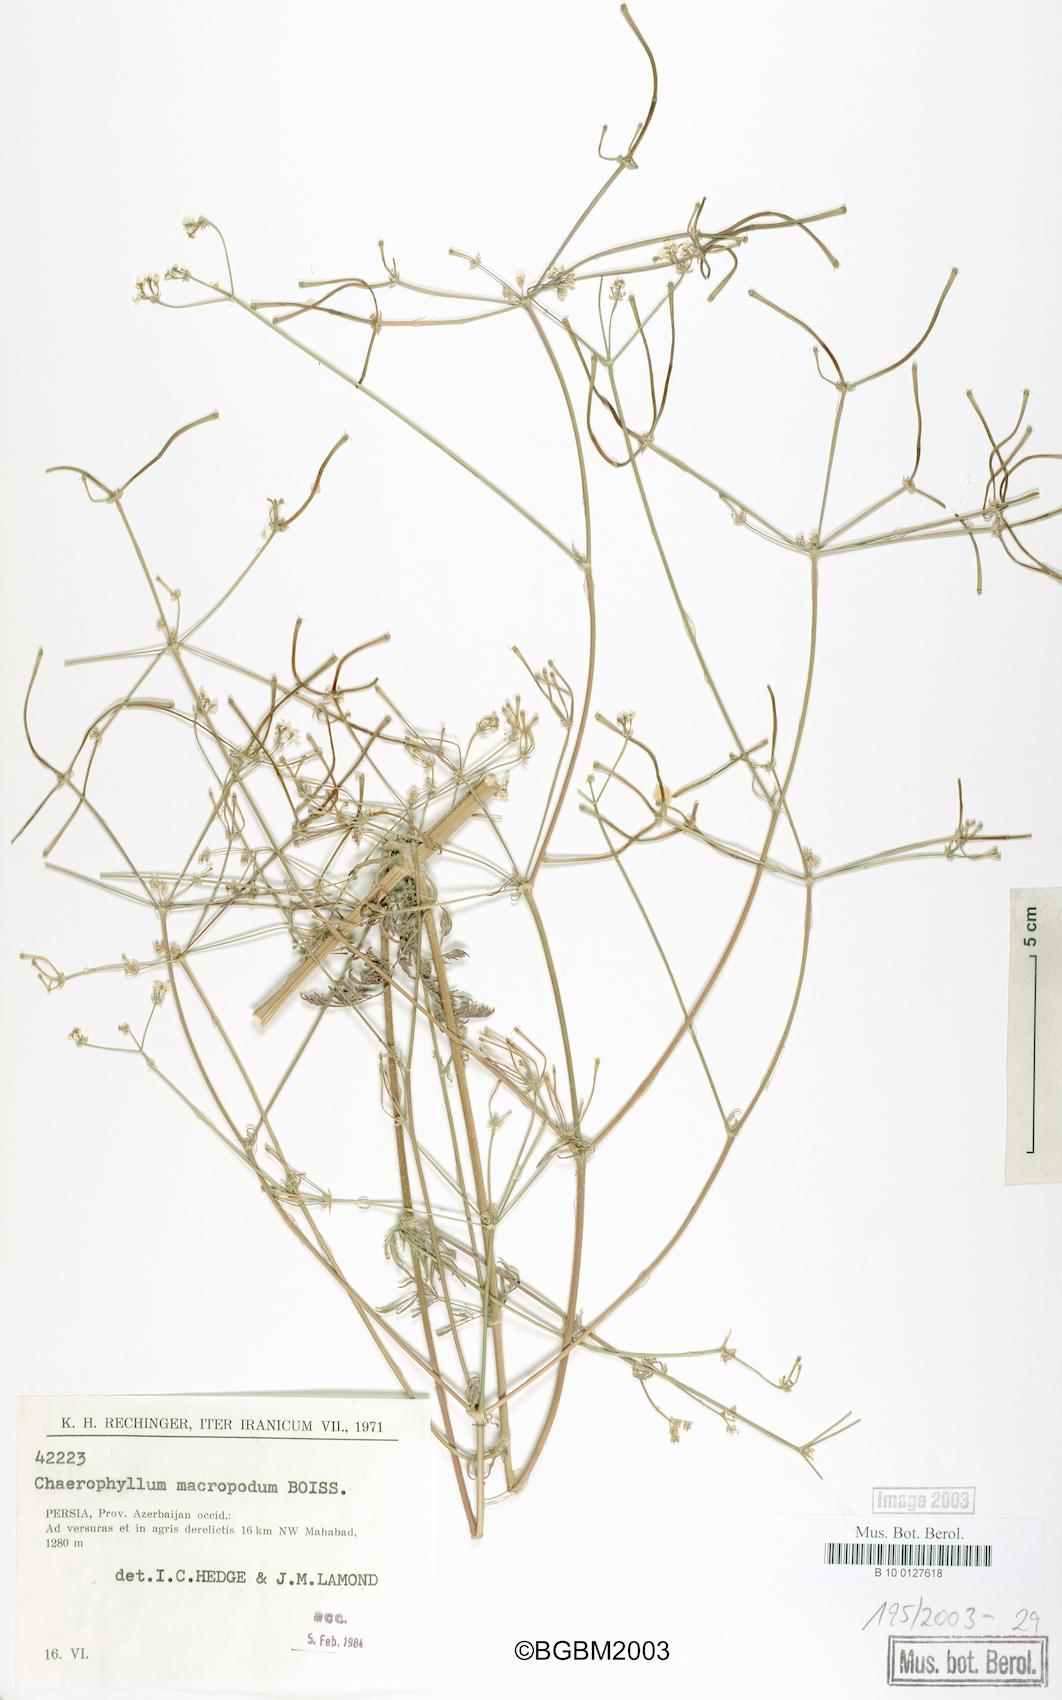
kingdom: Plantae
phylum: Tracheophyta
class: Magnoliopsida
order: Apiales
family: Apiaceae
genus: Chaerophyllum
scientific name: Chaerophyllum macropodum
